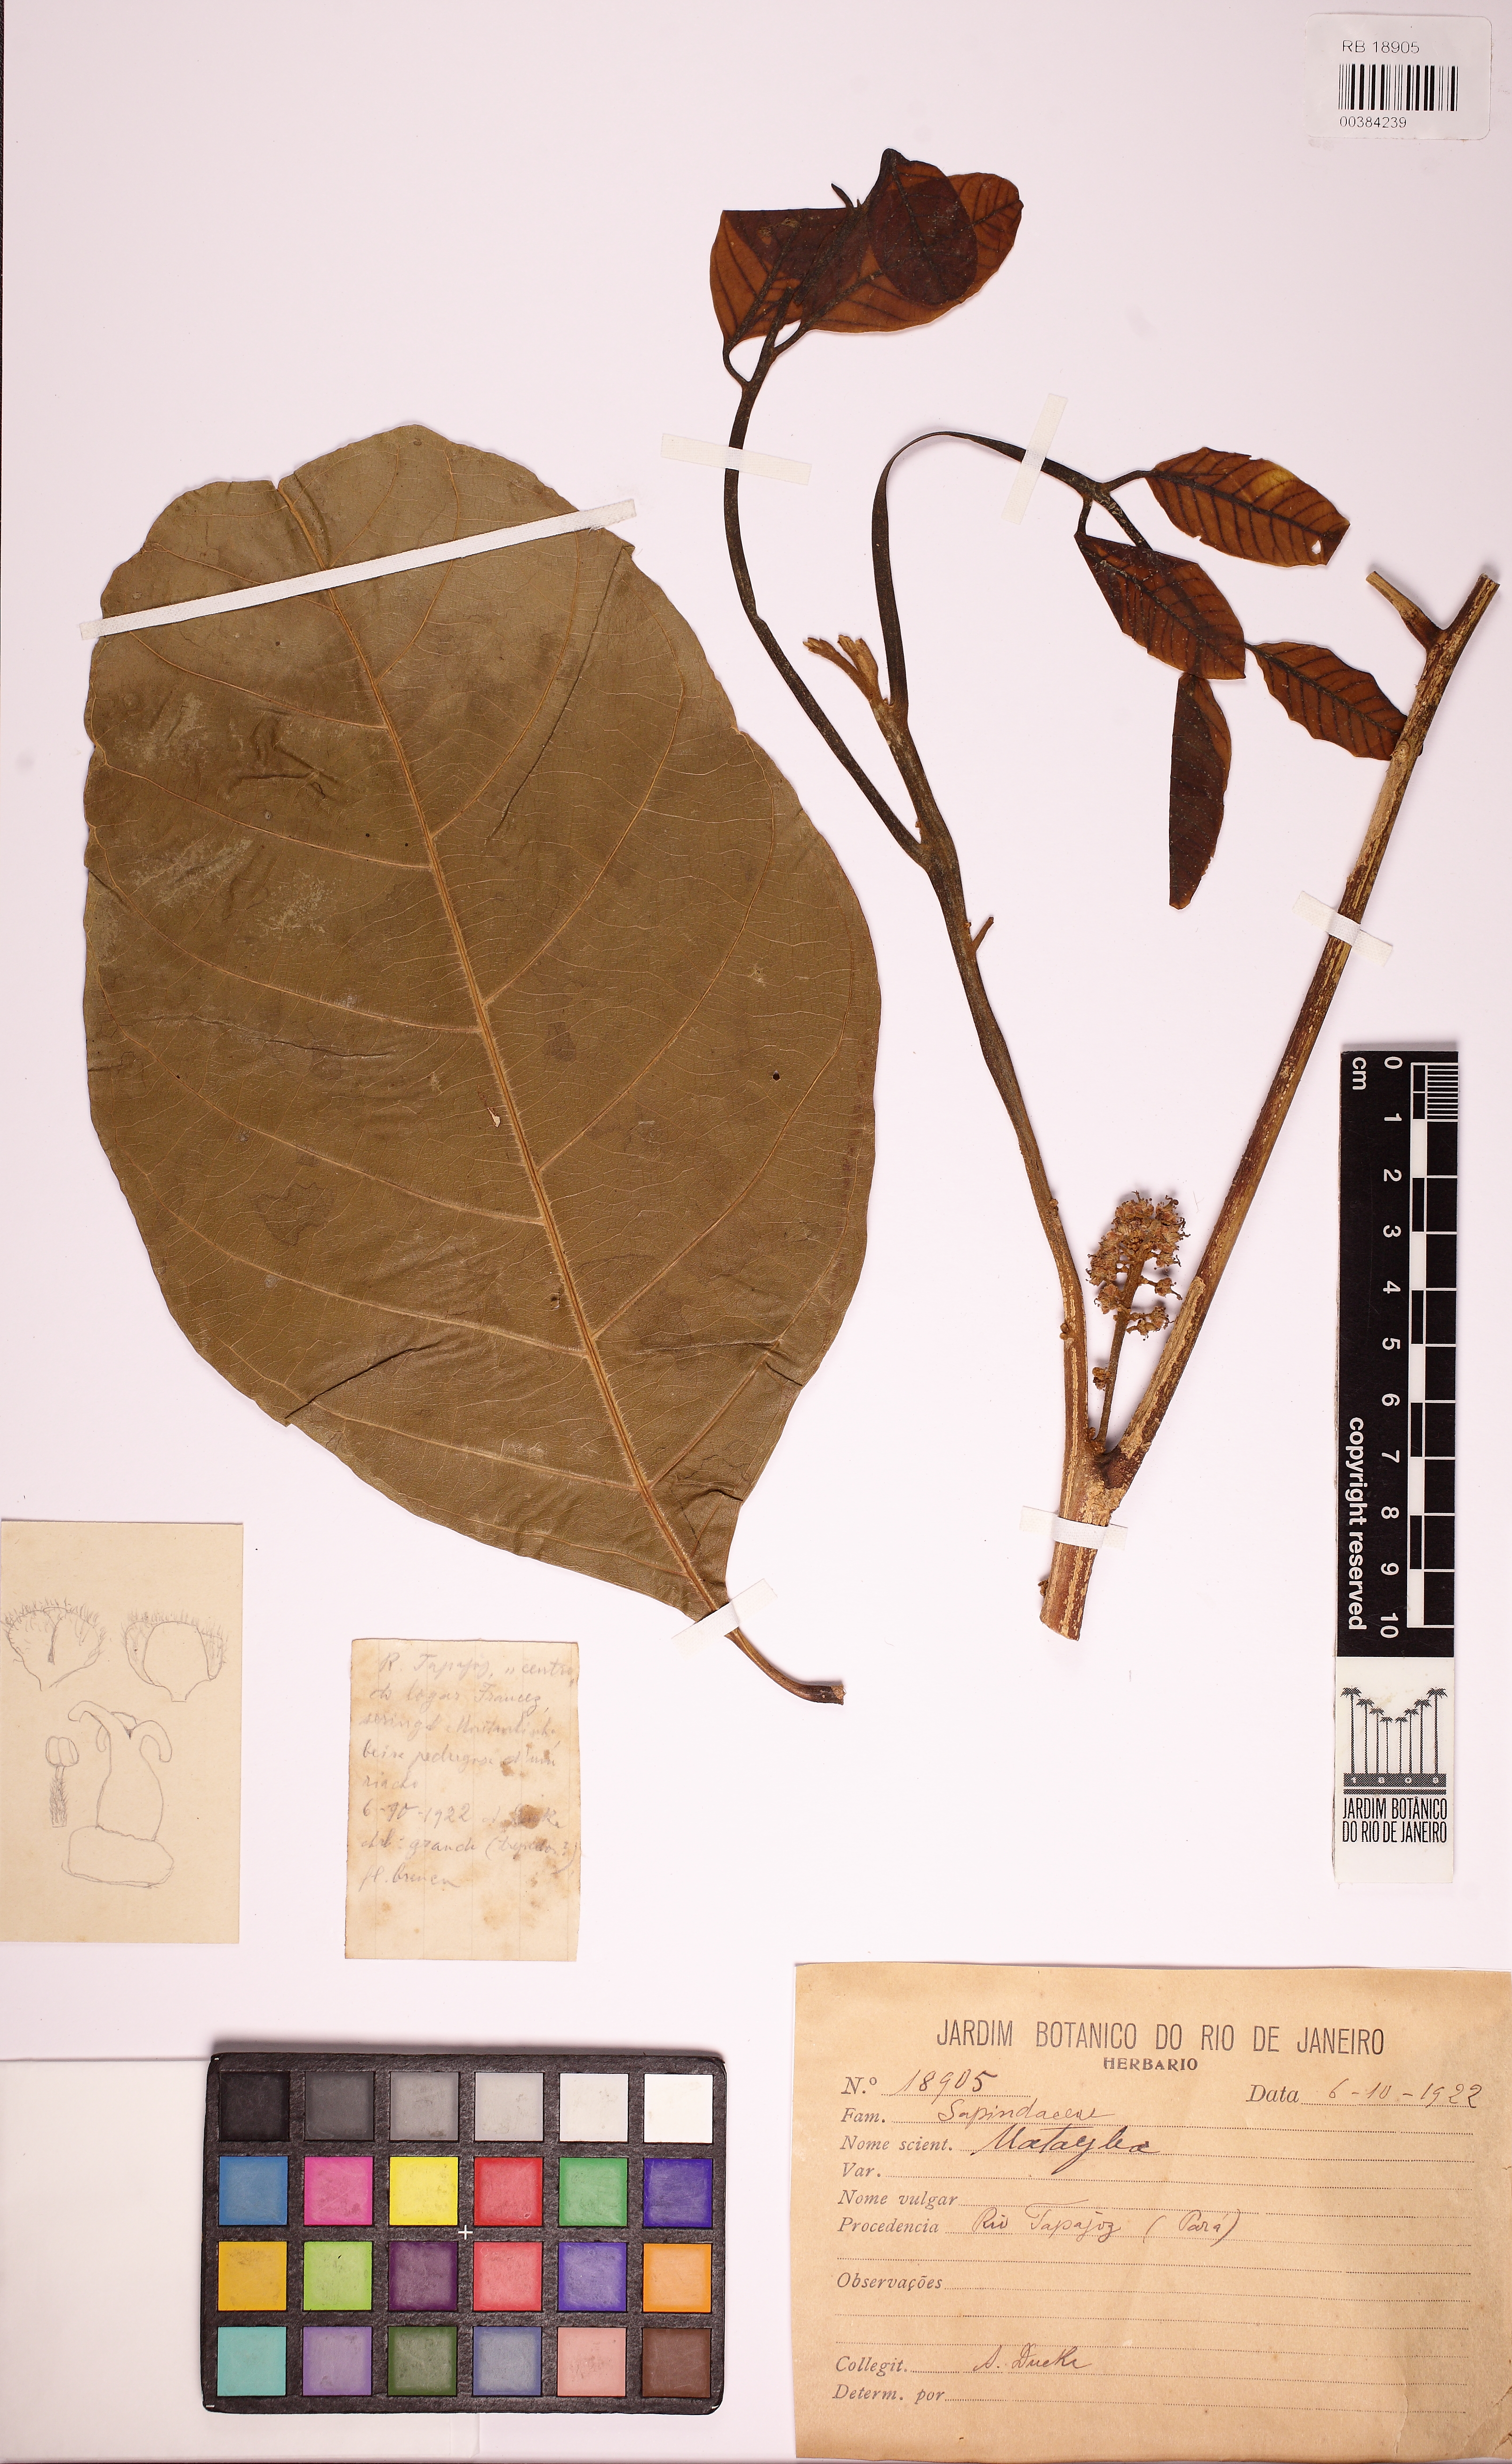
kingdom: Plantae
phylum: Tracheophyta
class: Magnoliopsida
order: Sapindales
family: Sapindaceae
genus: Matayba
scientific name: Matayba
